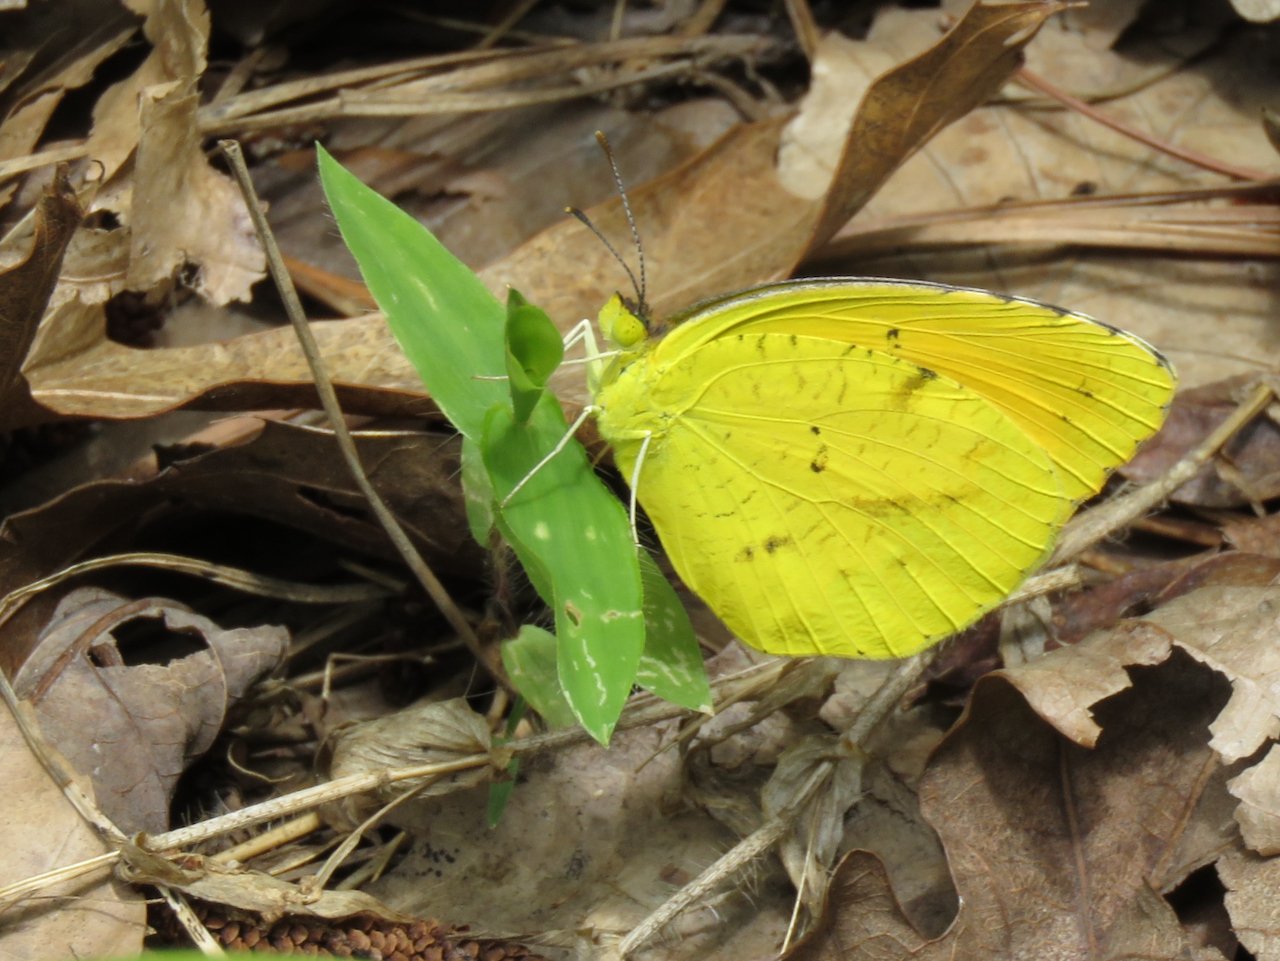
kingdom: Animalia
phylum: Arthropoda
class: Insecta
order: Lepidoptera
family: Pieridae
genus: Abaeis
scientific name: Abaeis nicippe
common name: Sleepy Orange
